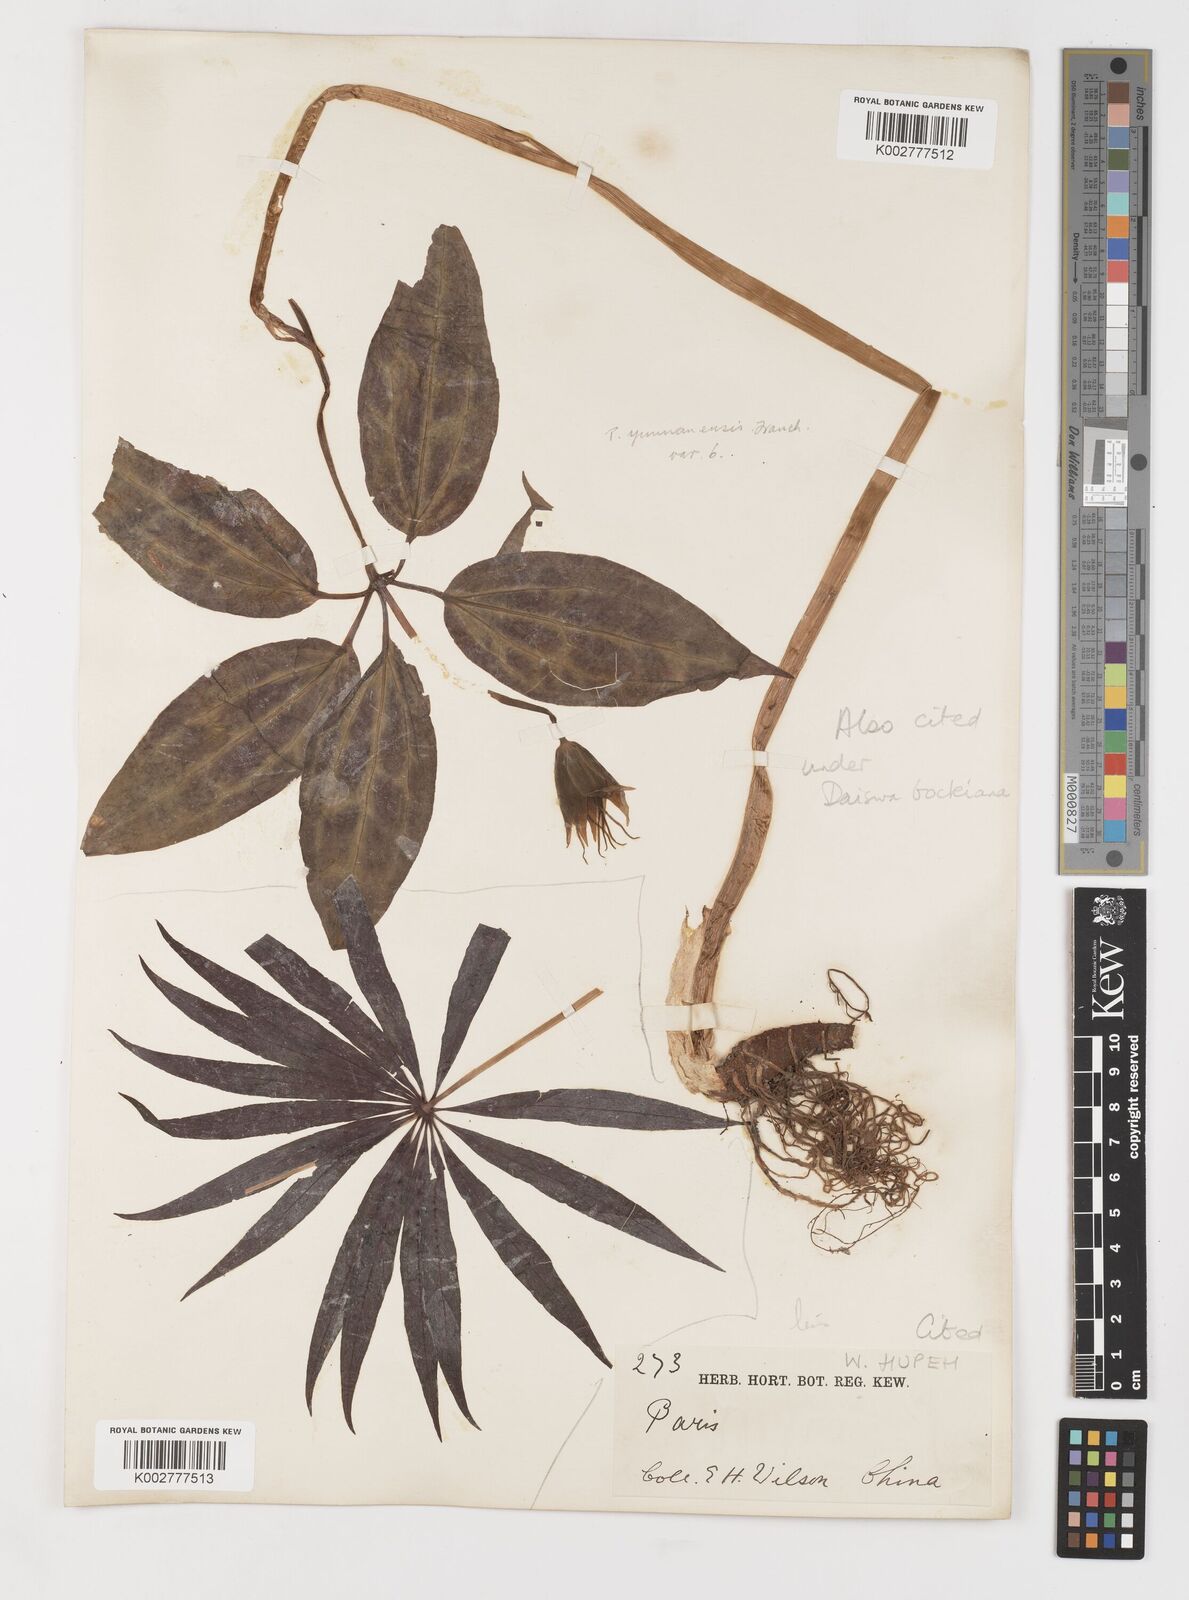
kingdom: Plantae
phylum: Tracheophyta
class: Liliopsida
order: Liliales
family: Melanthiaceae
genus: Paris
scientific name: Paris delavayi
